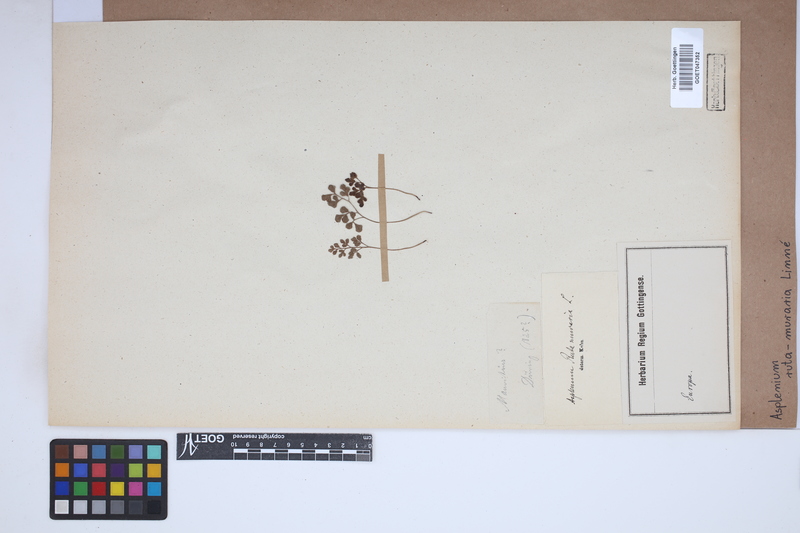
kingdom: Plantae
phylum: Tracheophyta
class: Polypodiopsida
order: Polypodiales
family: Aspleniaceae
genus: Asplenium
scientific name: Asplenium ruta-muraria
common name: Wall-rue
